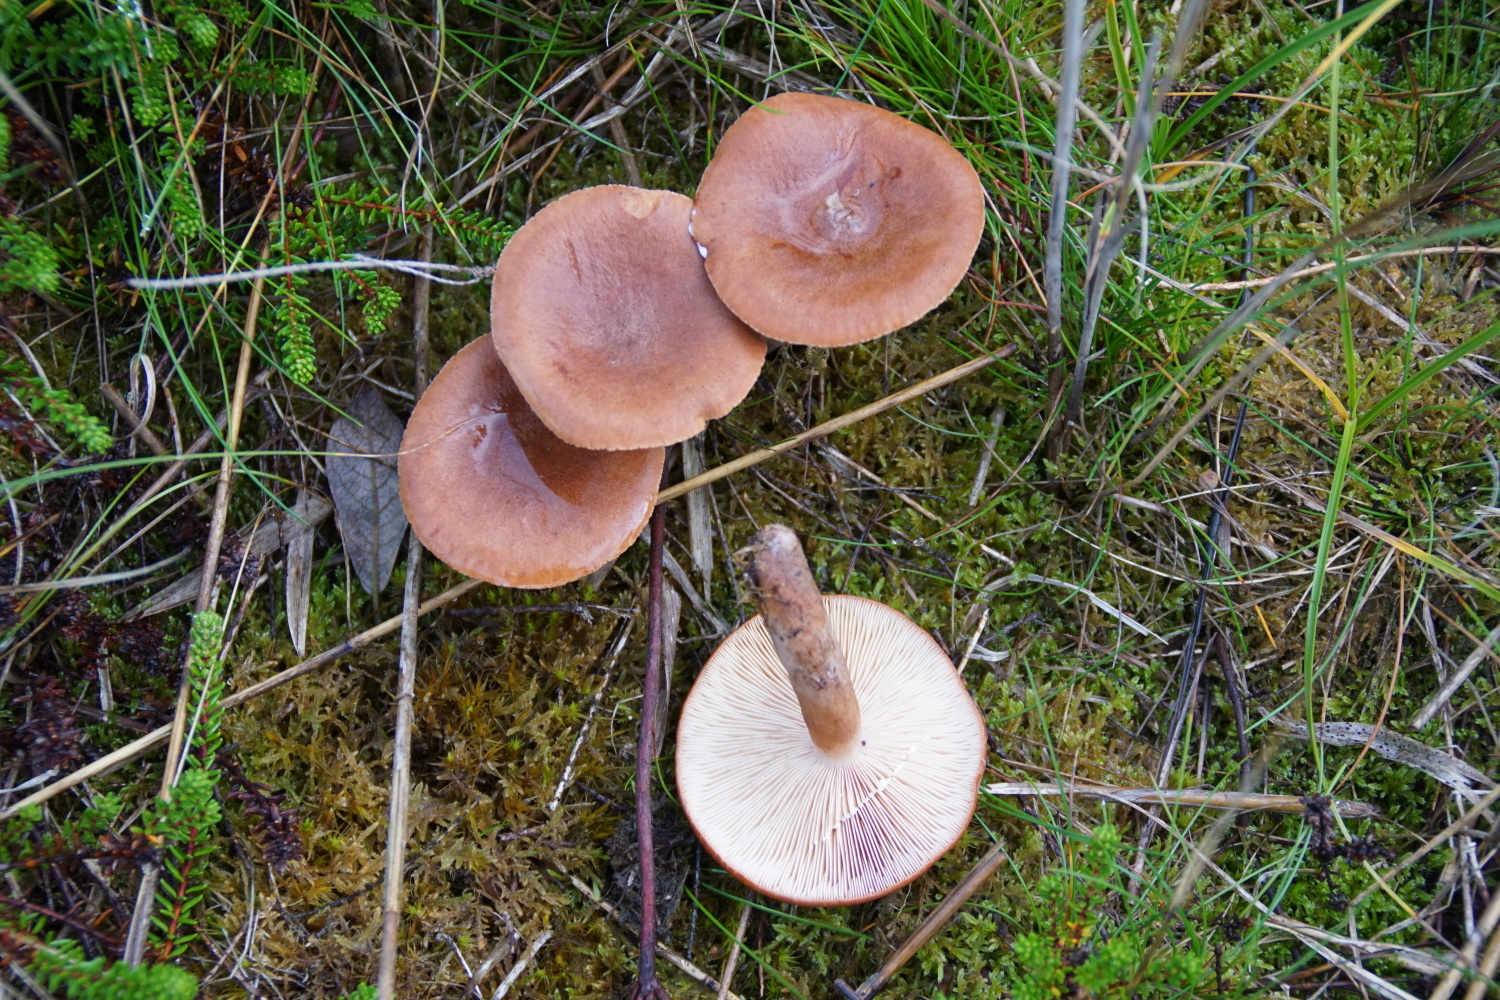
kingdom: Fungi
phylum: Basidiomycota
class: Agaricomycetes
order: Russulales
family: Russulaceae
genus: Lactarius
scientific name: Lactarius rufus
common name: rødbrun mælkehat
